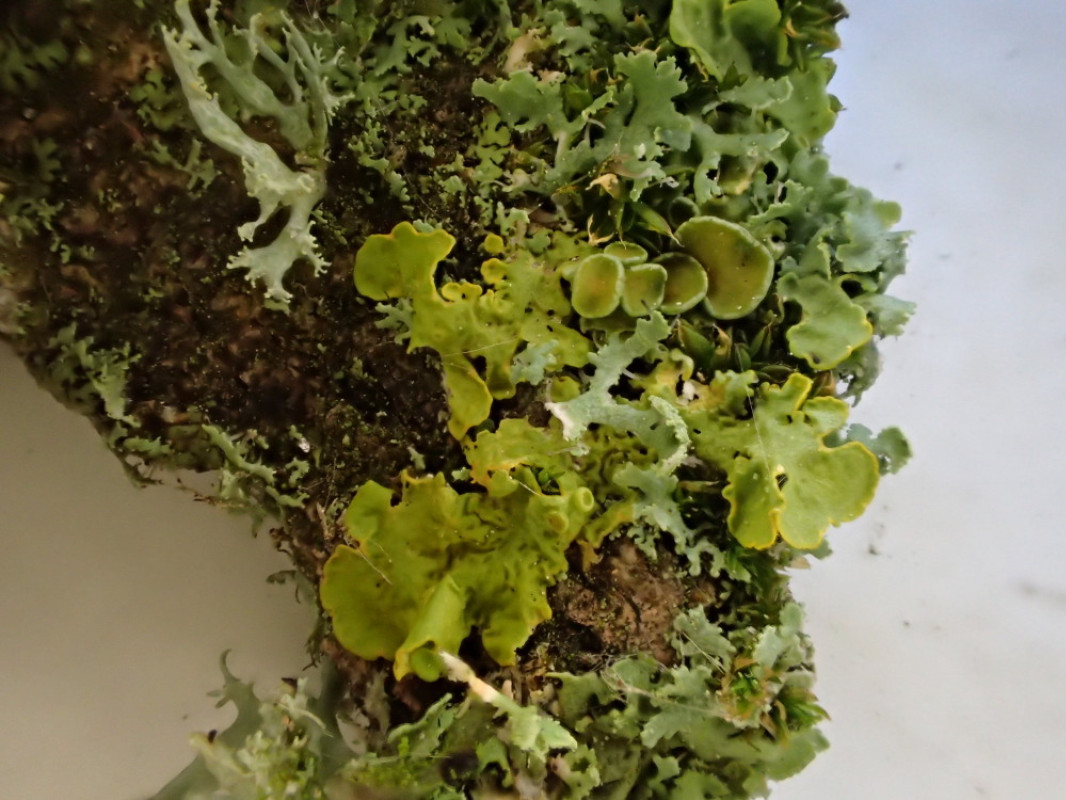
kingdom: Fungi
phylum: Ascomycota
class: Lecanoromycetes
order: Teloschistales
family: Teloschistaceae
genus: Xanthoria
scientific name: Xanthoria parietina
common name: almindelig væggelav
